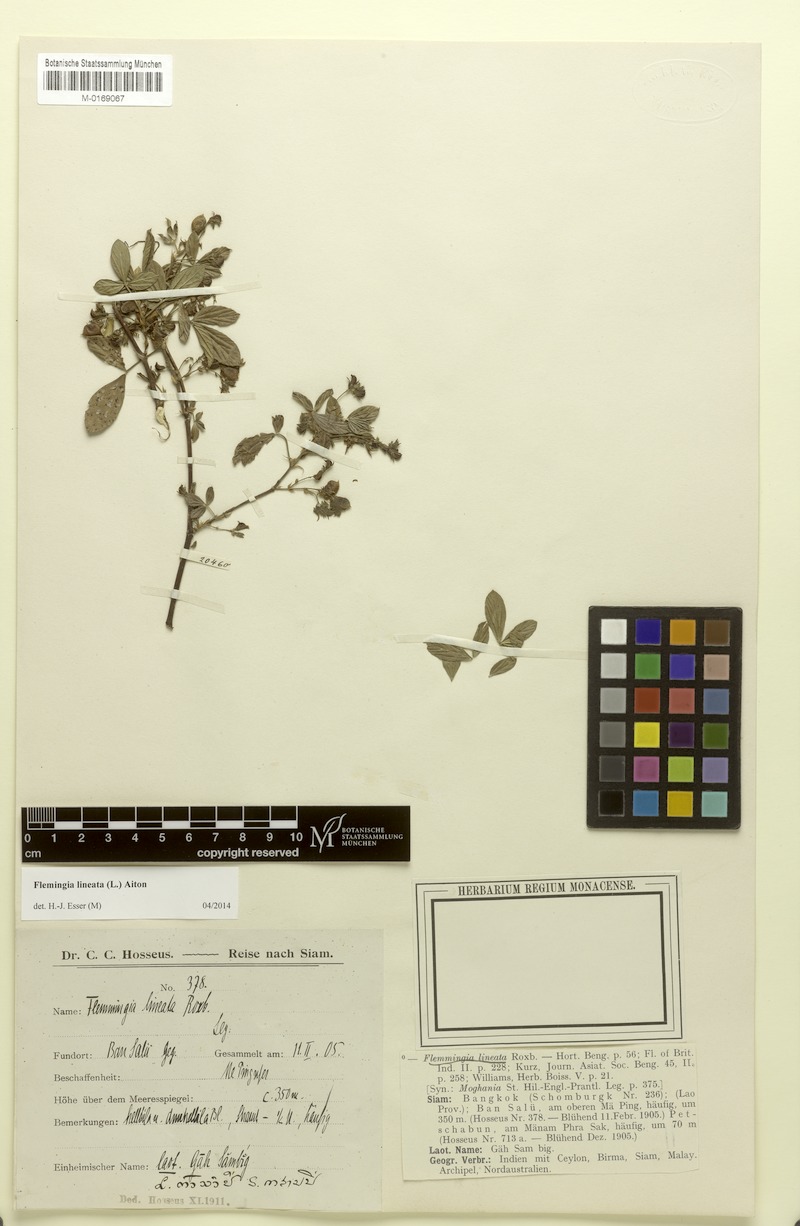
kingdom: Plantae
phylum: Tracheophyta
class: Magnoliopsida
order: Fabales
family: Fabaceae
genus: Flemingia
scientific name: Flemingia lineata
